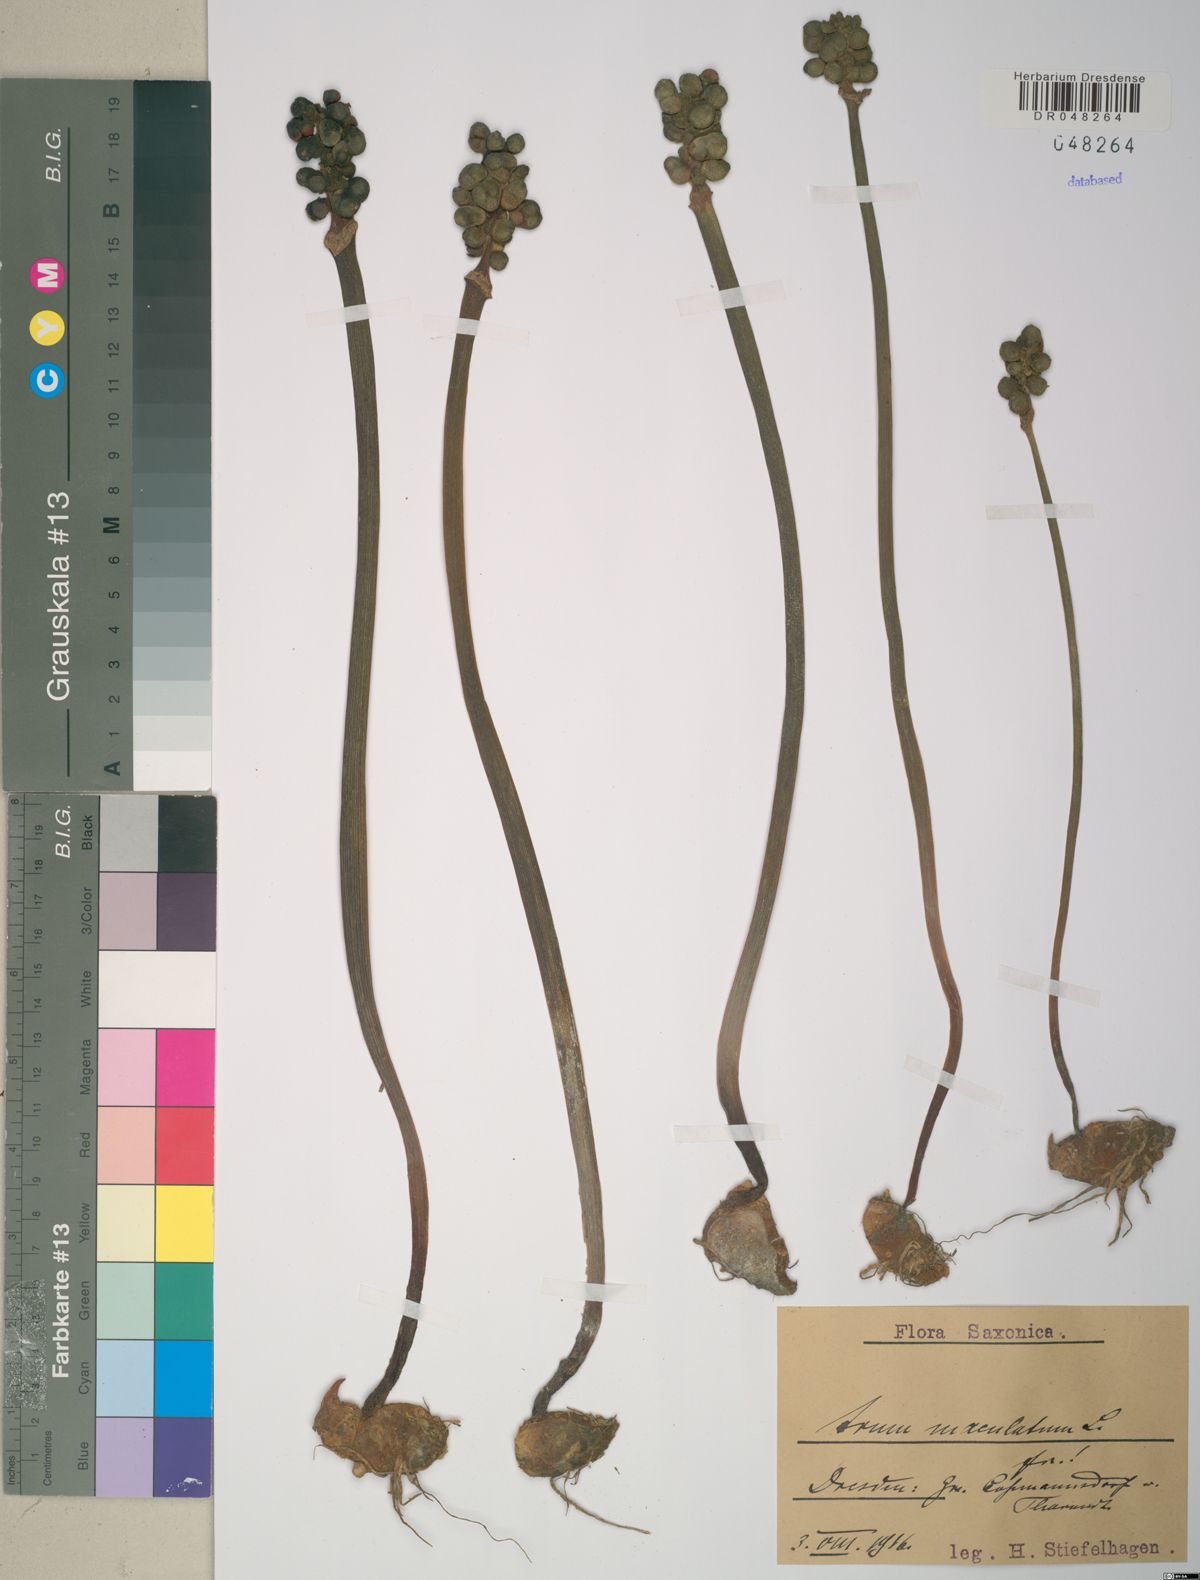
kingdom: Plantae
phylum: Tracheophyta
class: Liliopsida
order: Alismatales
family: Araceae
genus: Arum
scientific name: Arum maculatum
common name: Lords-and-ladies
